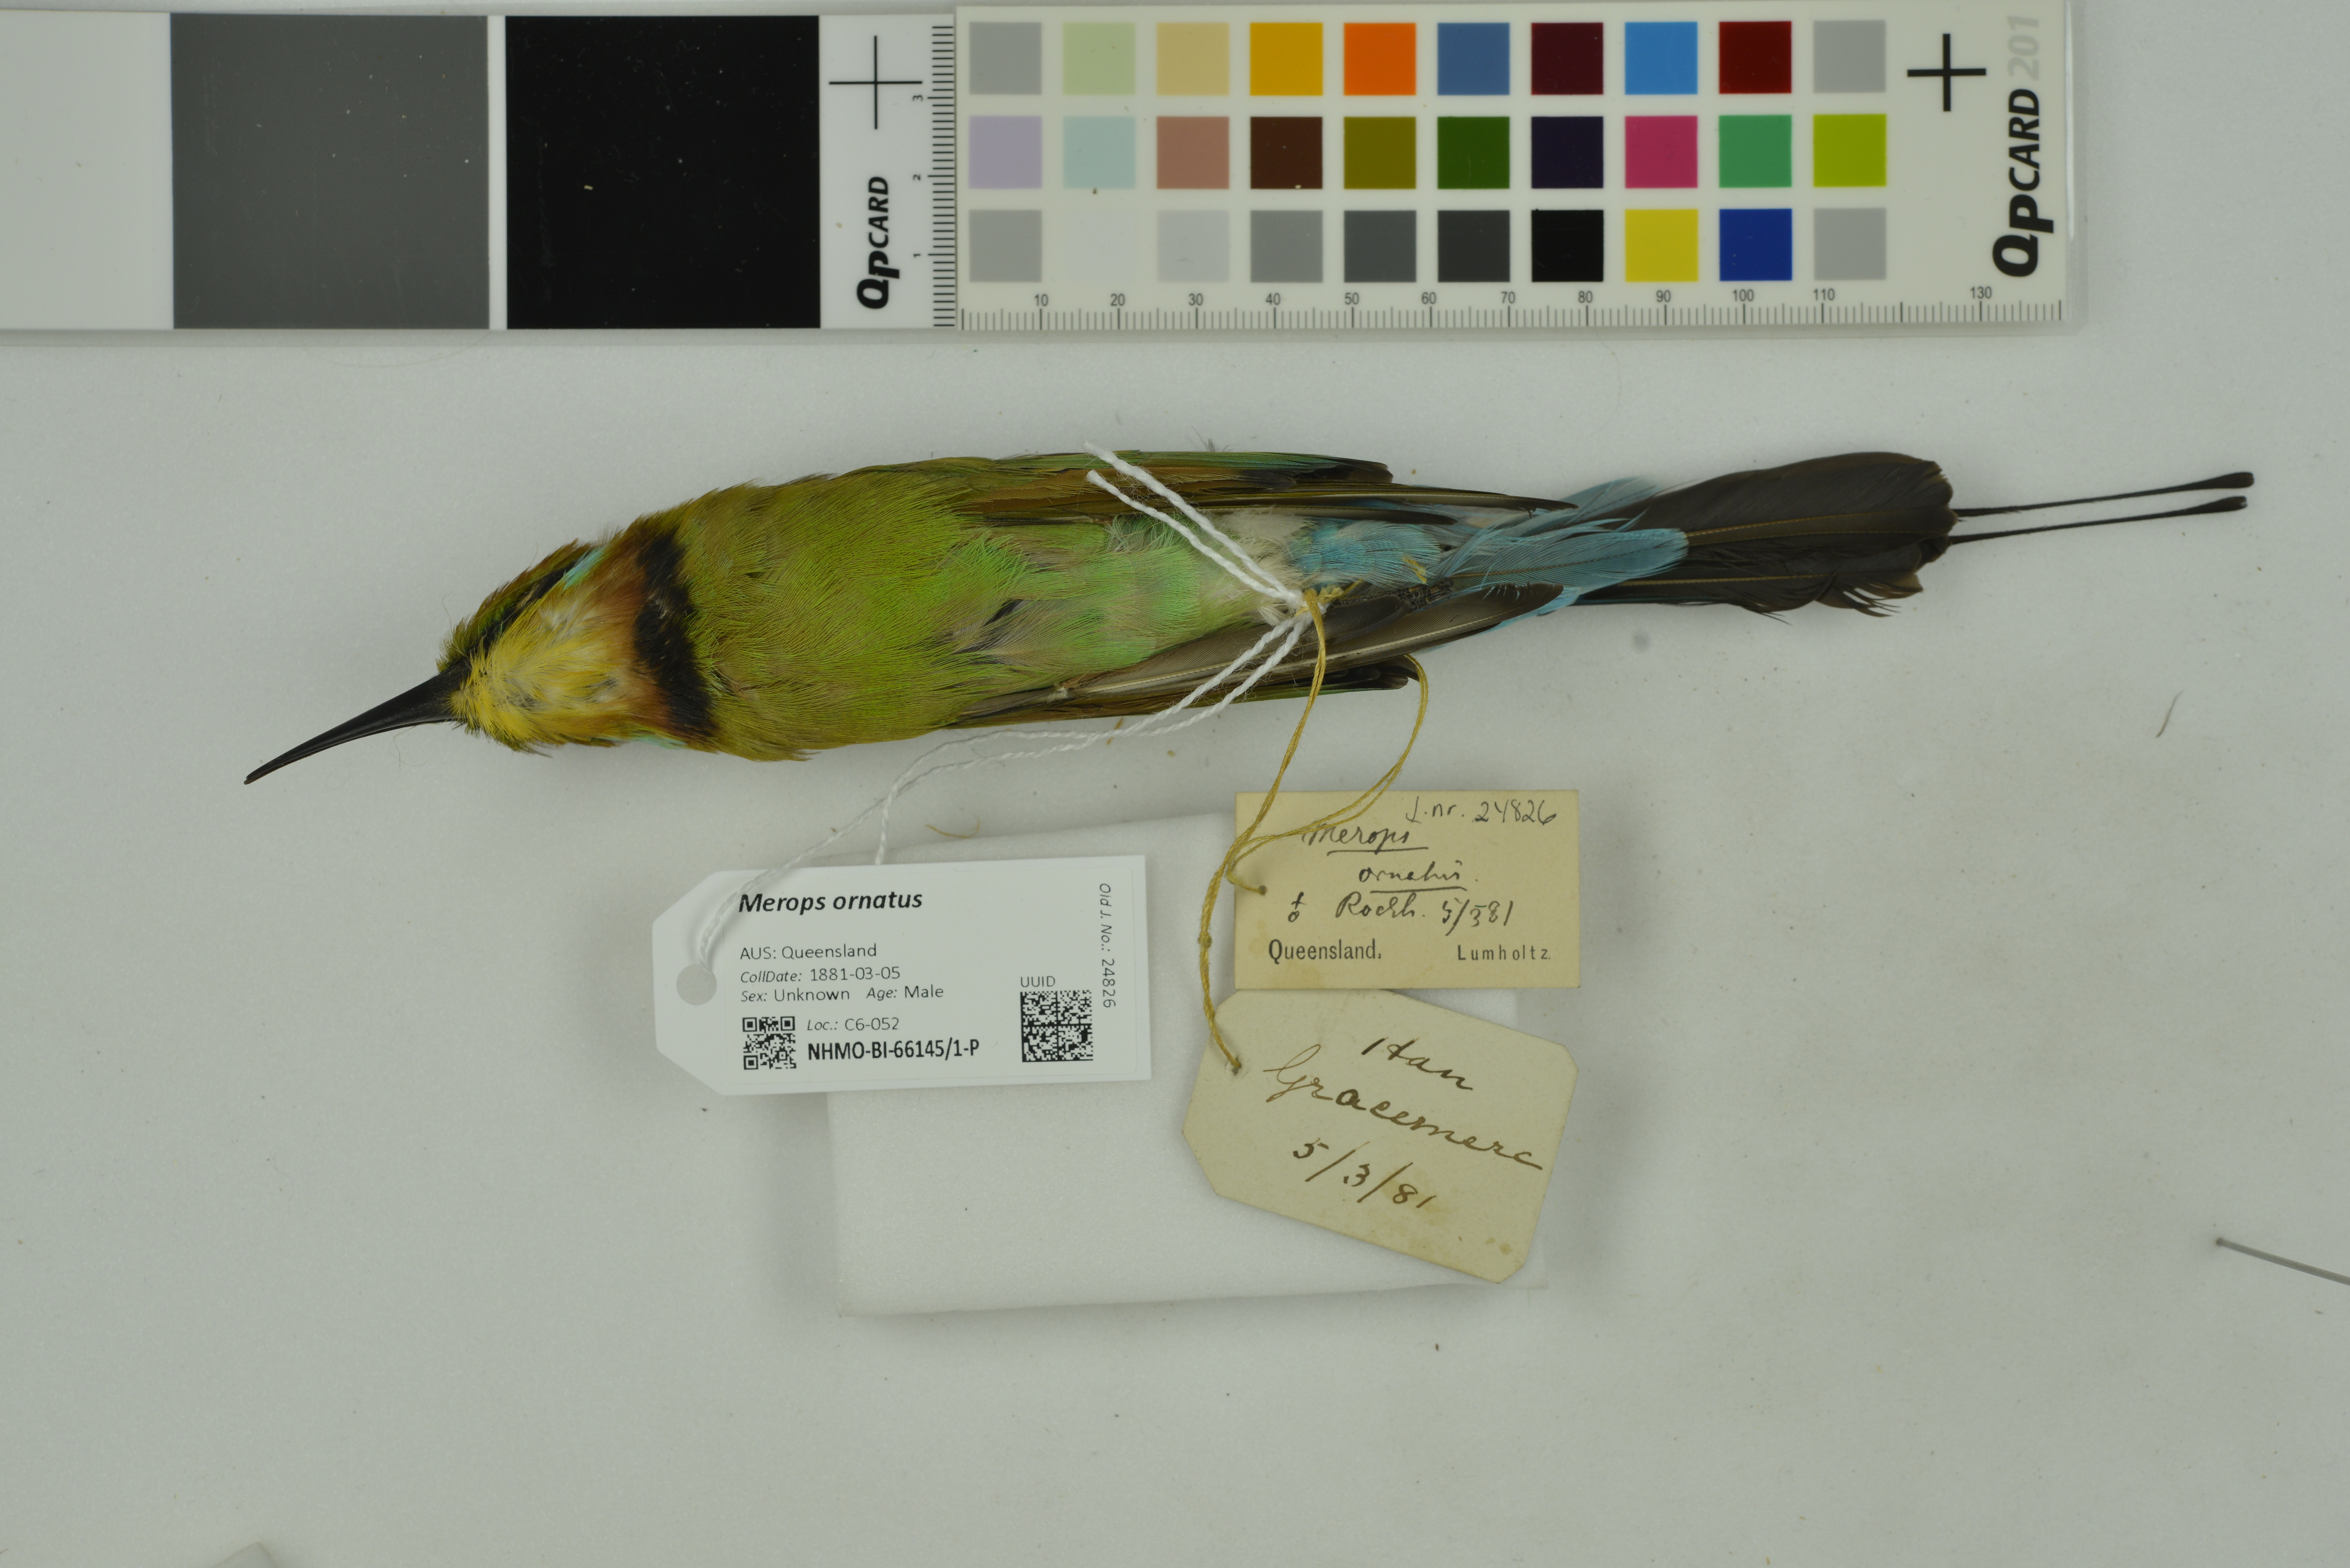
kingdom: Animalia
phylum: Chordata
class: Aves
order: Coraciiformes
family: Meropidae
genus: Merops
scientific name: Merops ornatus
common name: Rainbow bee-eater
